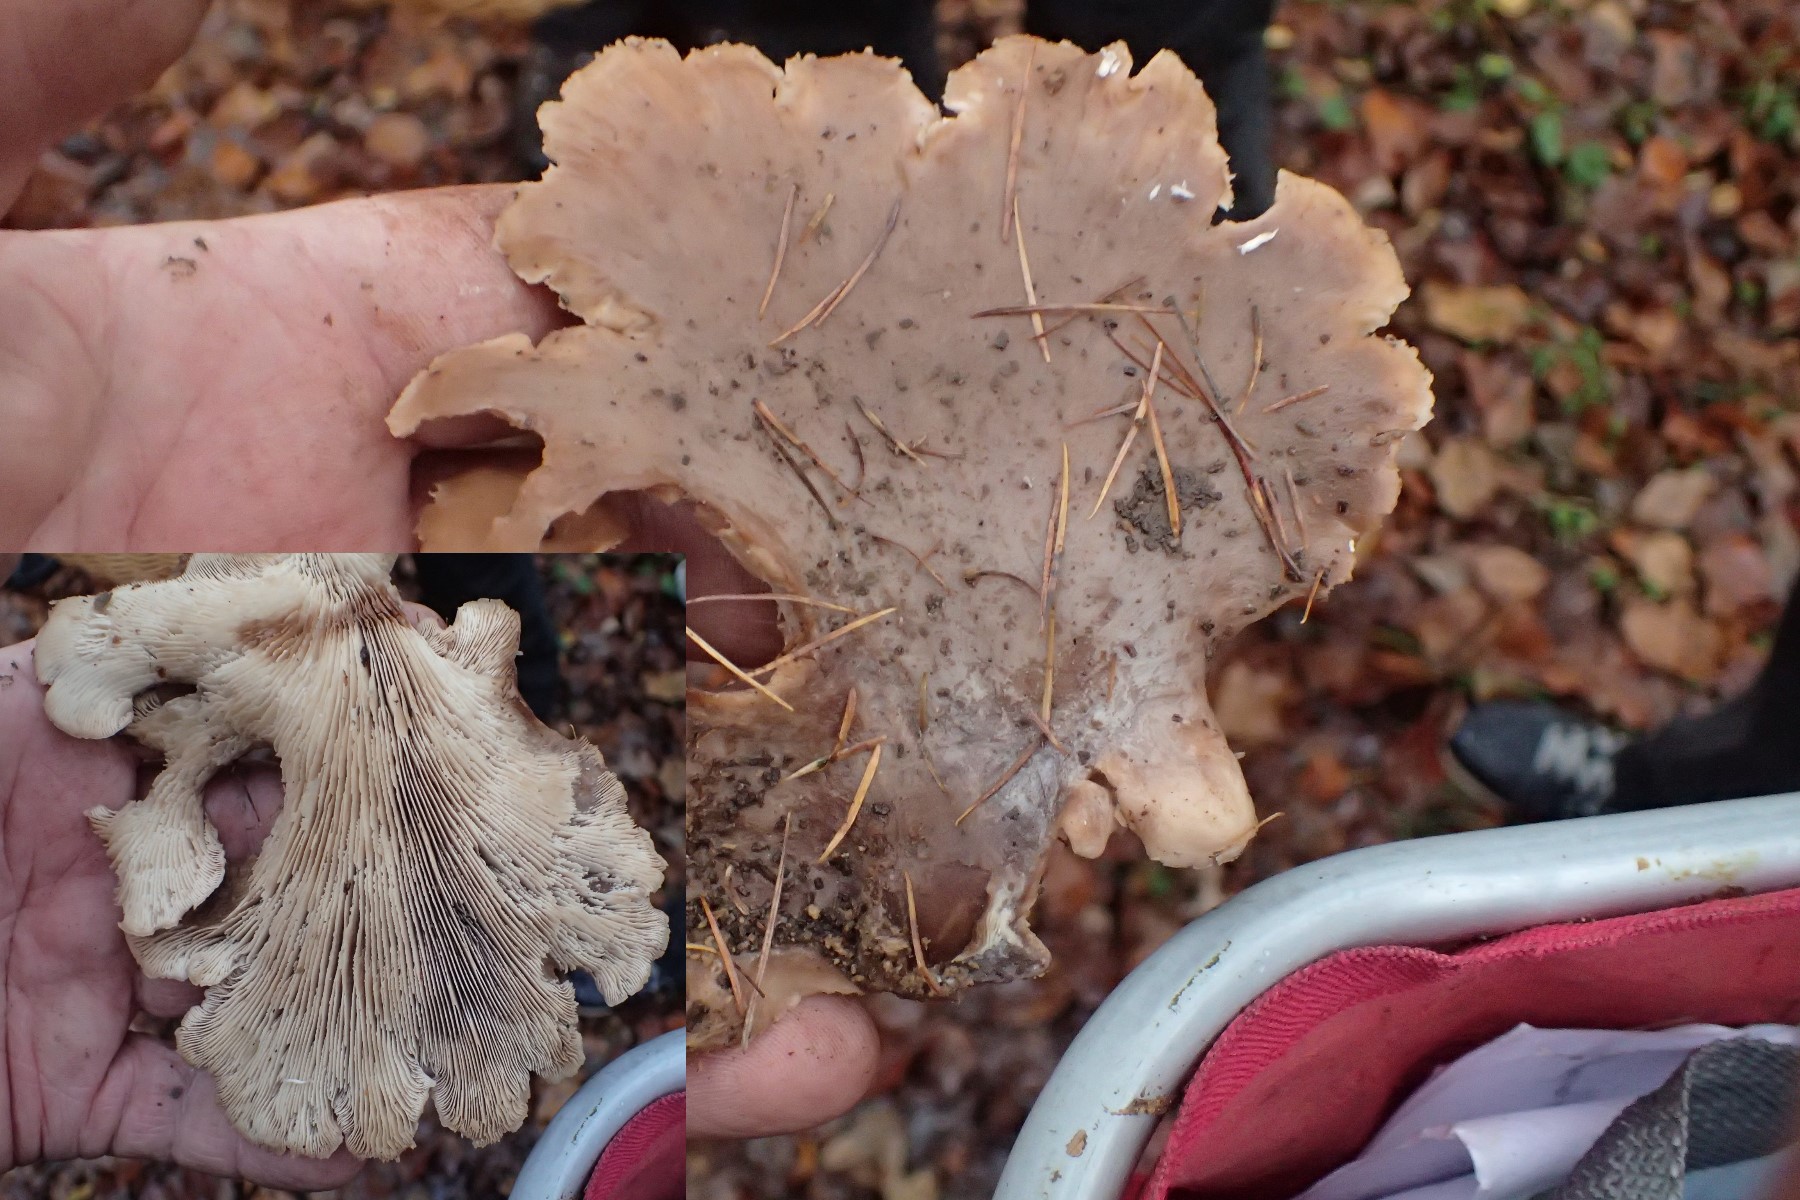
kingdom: Fungi
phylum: Basidiomycota
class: Agaricomycetes
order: Russulales
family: Auriscalpiaceae
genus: Lentinellus
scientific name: Lentinellus ursinus
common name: børstehåret savbladhat
